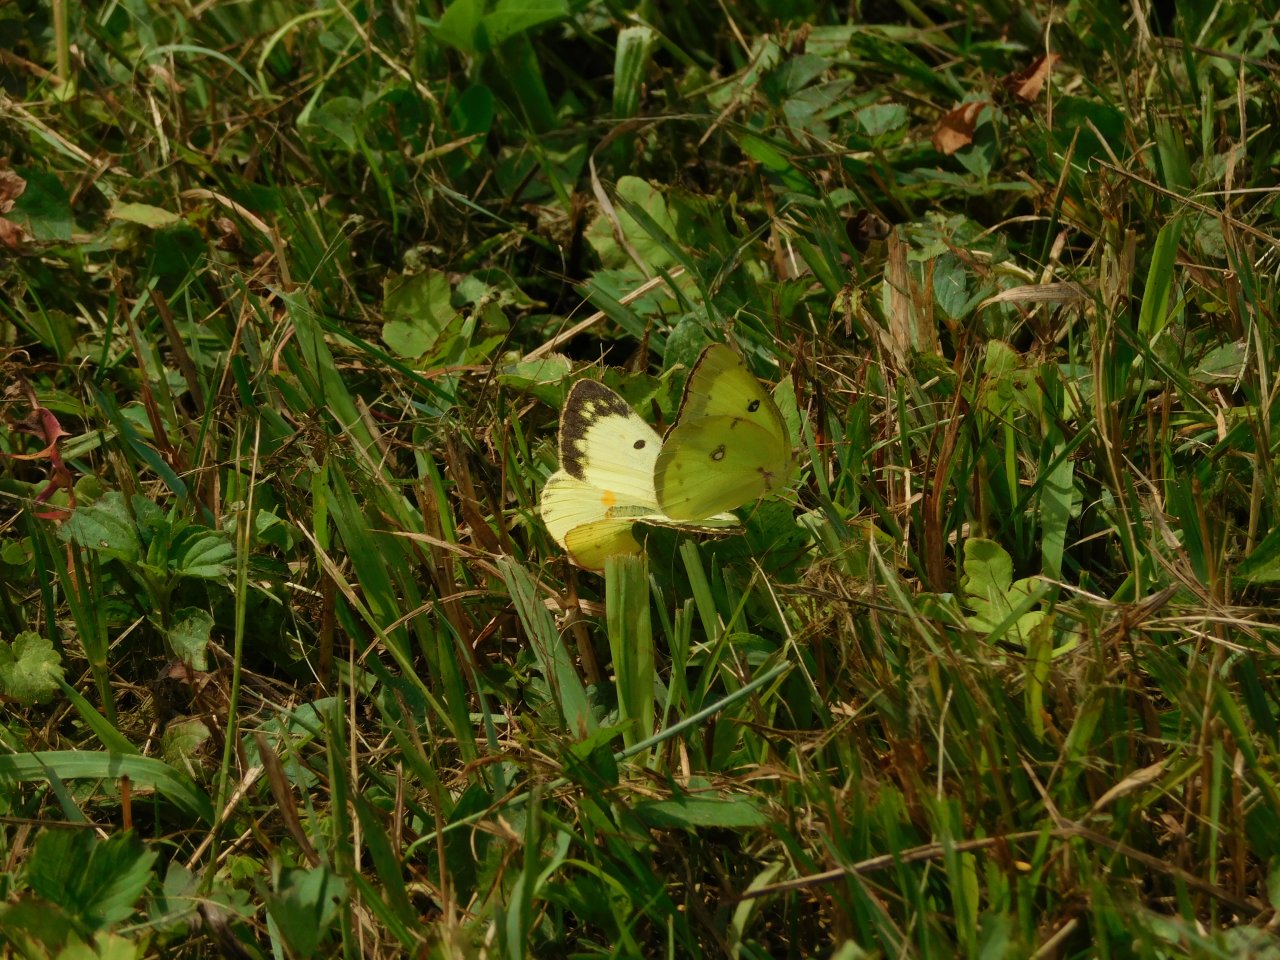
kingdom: Animalia
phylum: Arthropoda
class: Insecta
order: Lepidoptera
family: Pieridae
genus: Colias
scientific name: Colias philodice
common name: Clouded Sulphur
